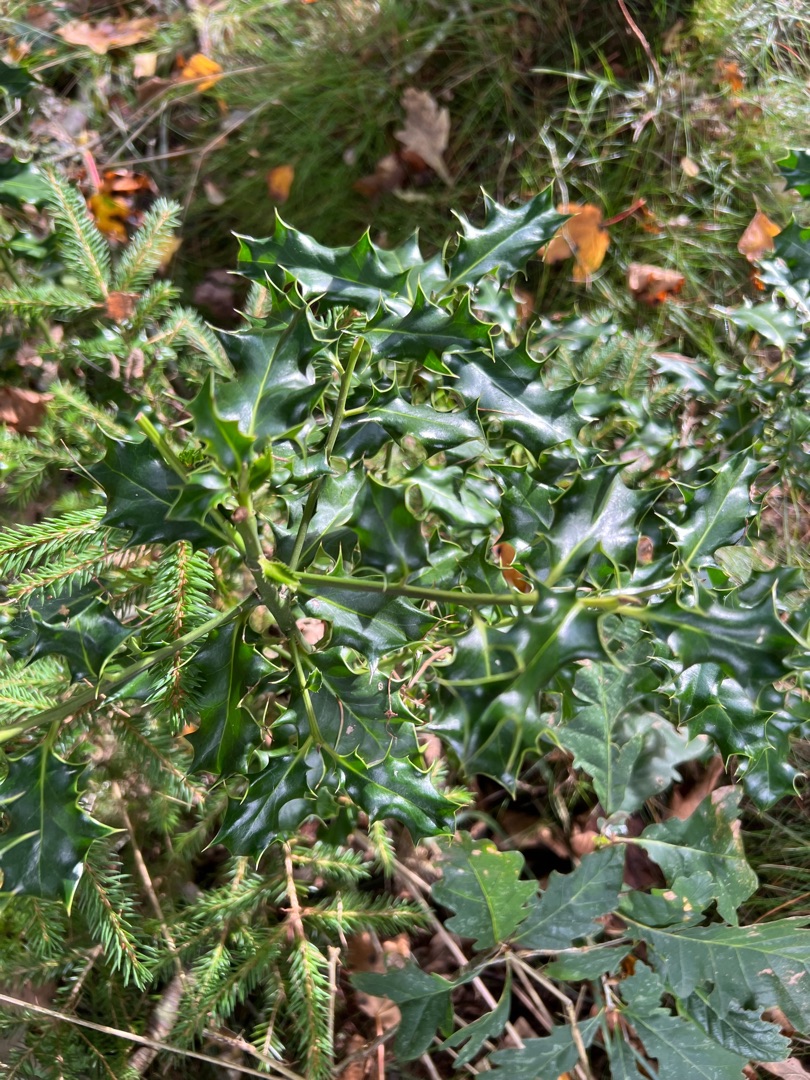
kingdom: Plantae
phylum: Tracheophyta
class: Magnoliopsida
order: Aquifoliales
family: Aquifoliaceae
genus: Ilex
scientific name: Ilex aquifolium
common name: Kristtorn
